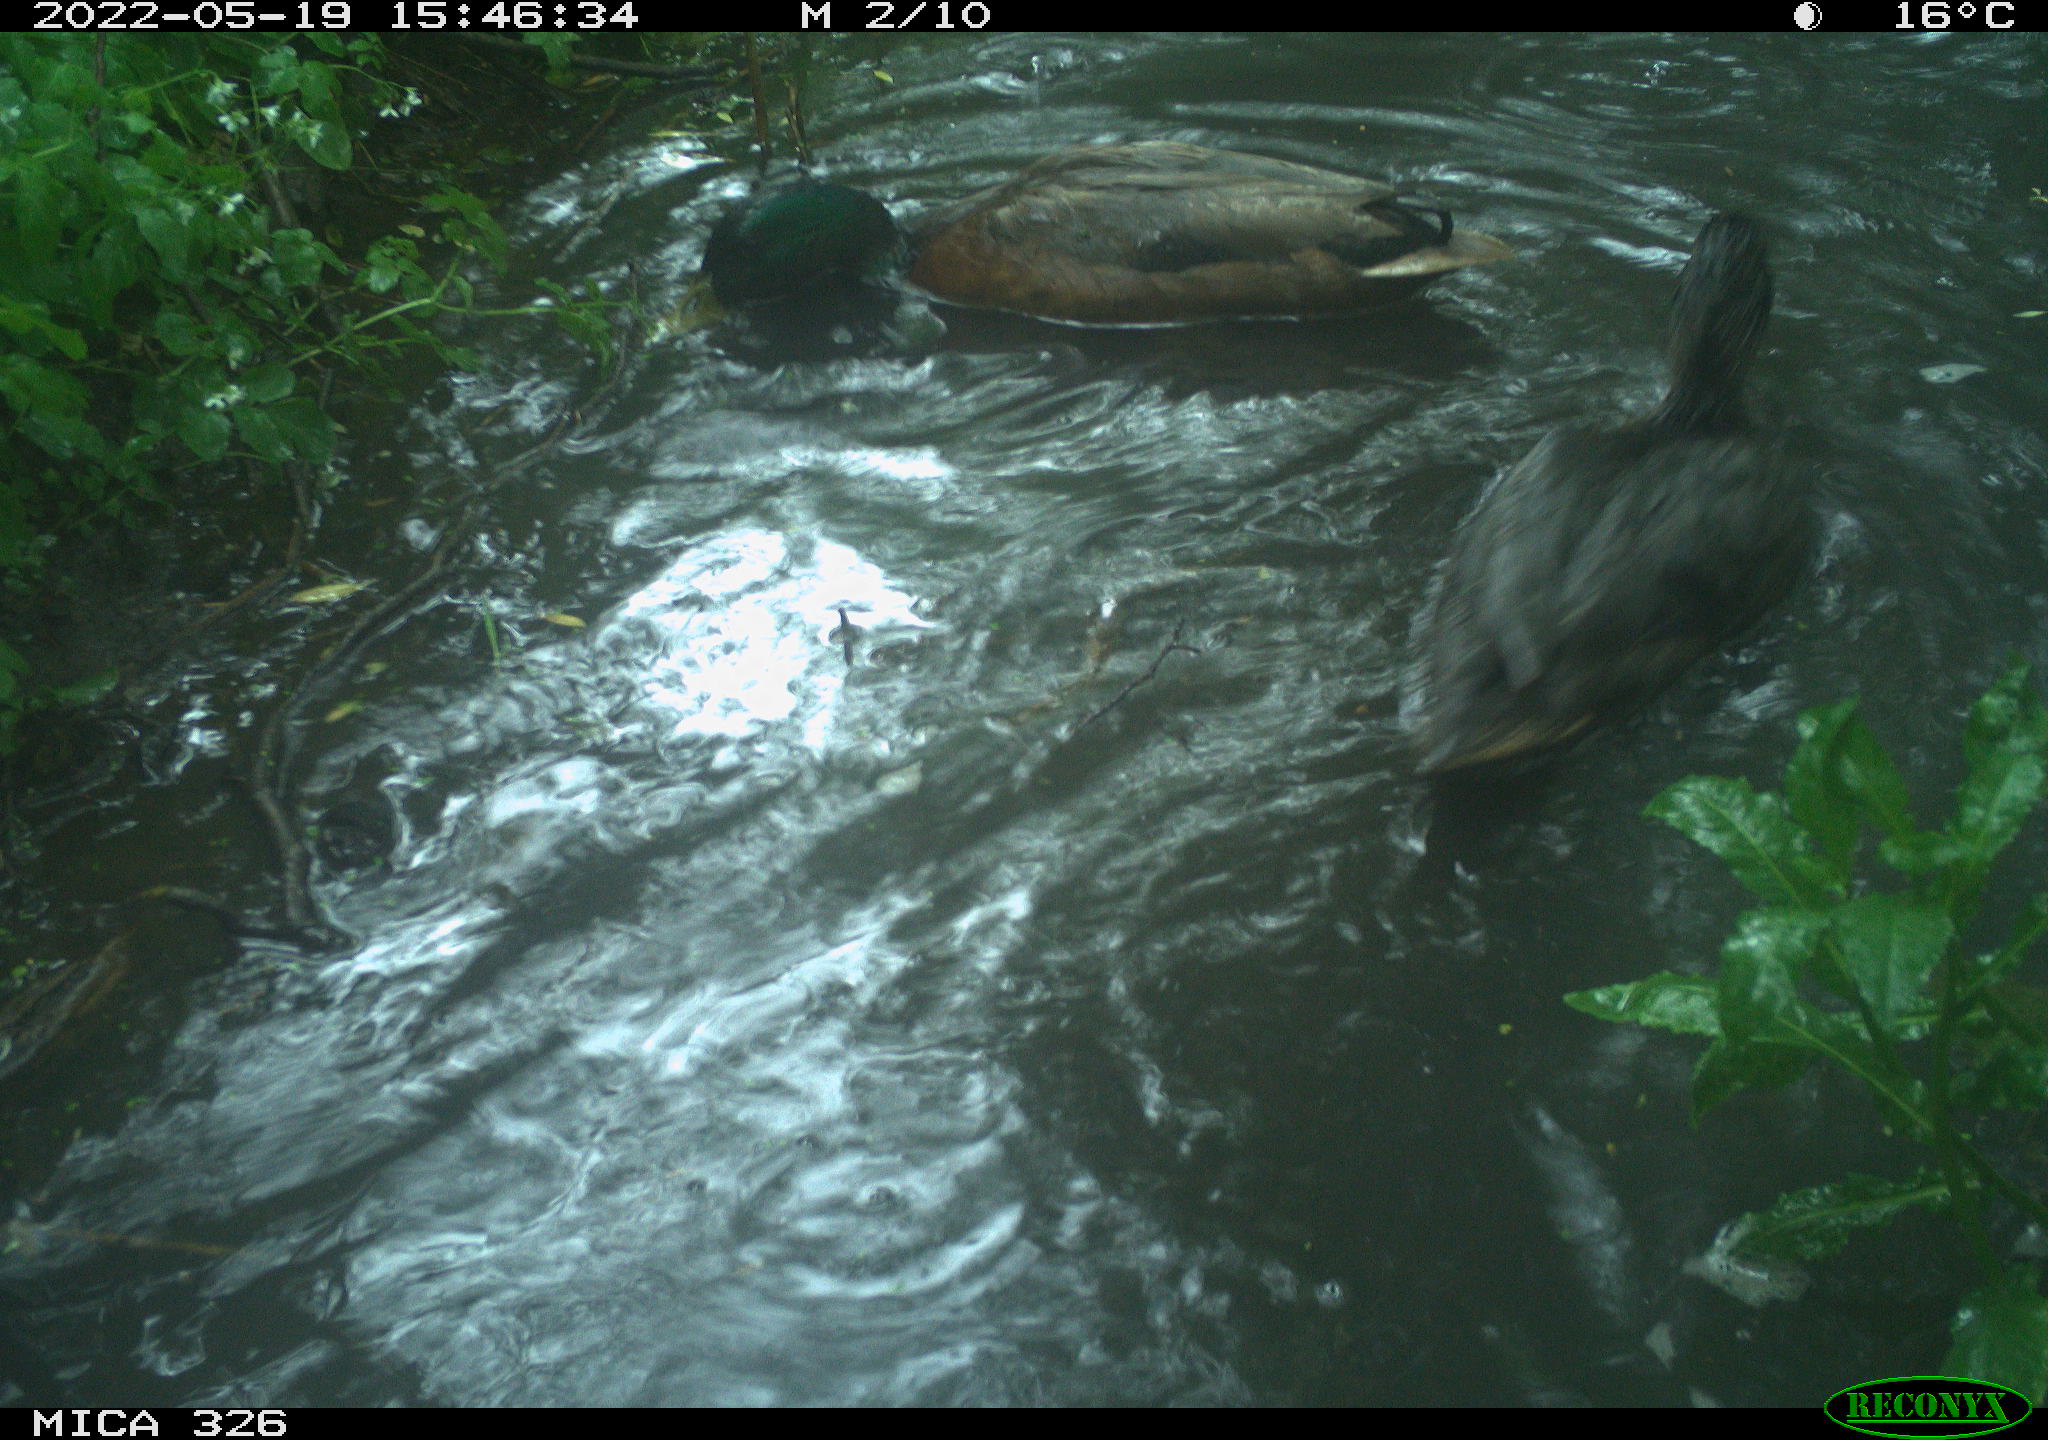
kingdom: Animalia
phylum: Chordata
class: Aves
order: Anseriformes
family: Anatidae
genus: Anas
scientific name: Anas platyrhynchos
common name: Mallard
